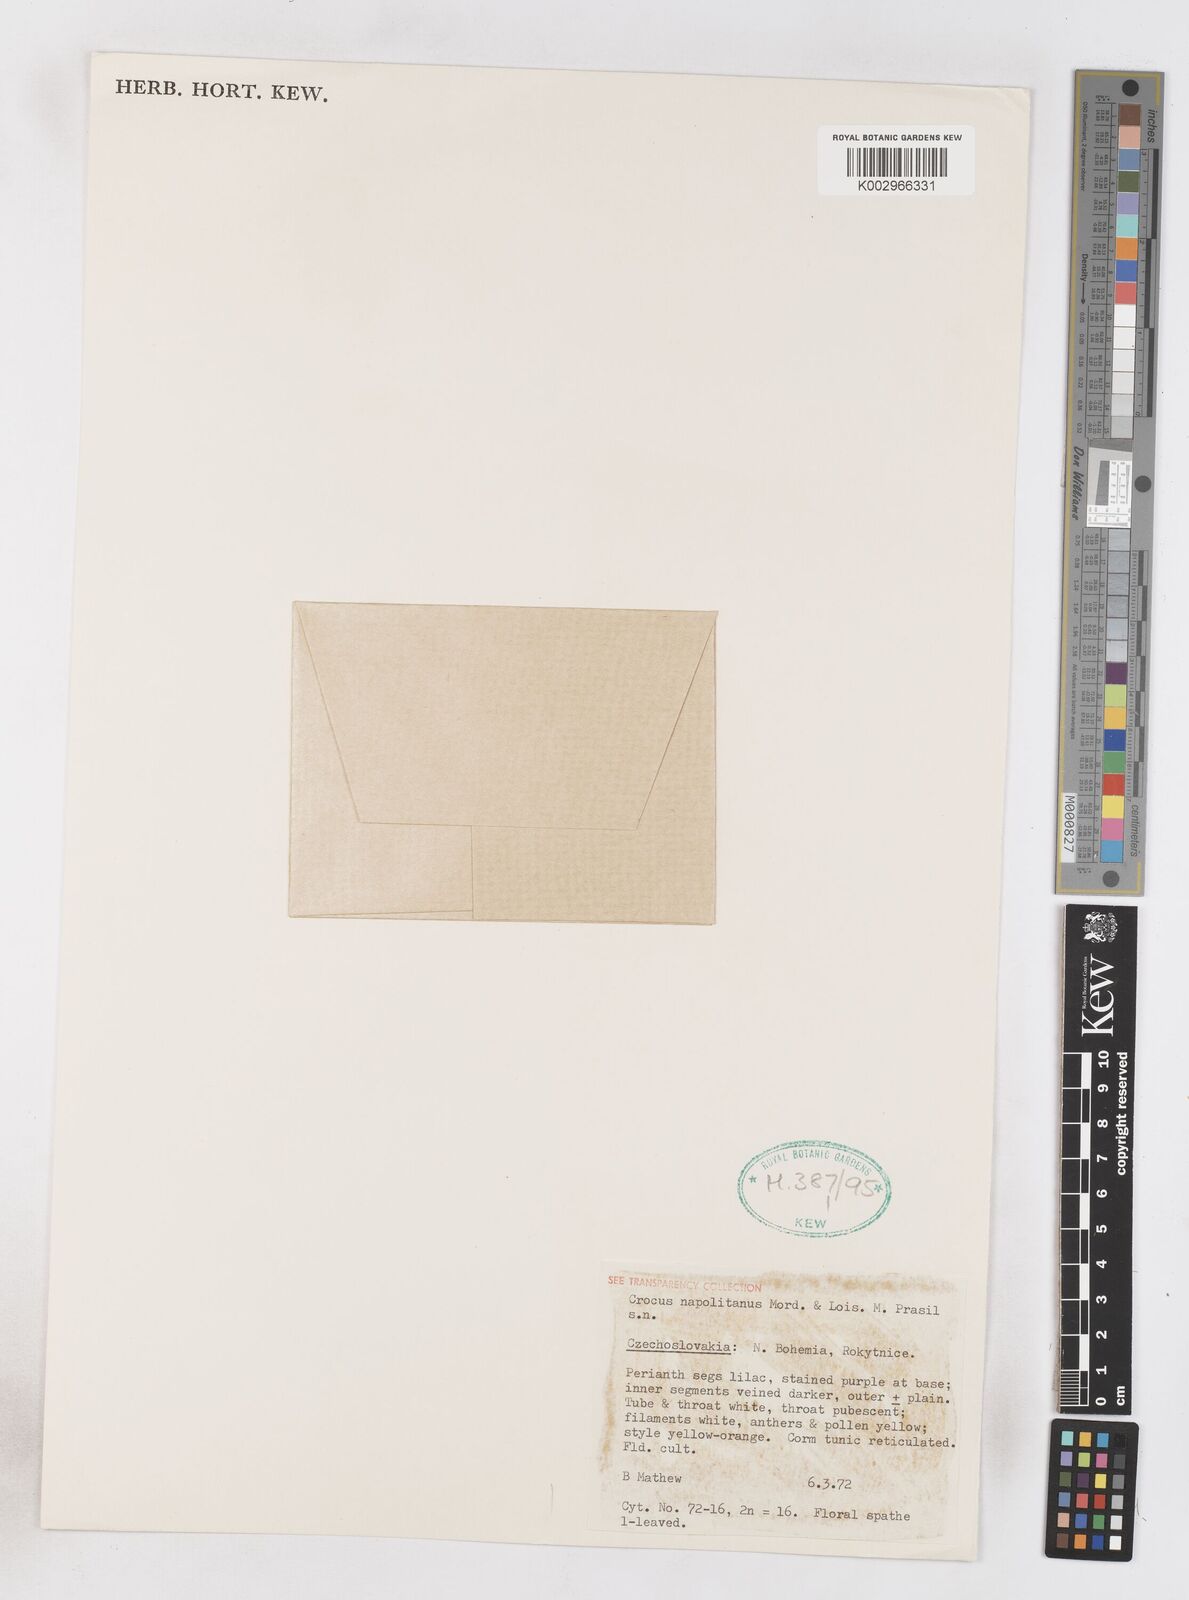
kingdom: Plantae
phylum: Tracheophyta
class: Liliopsida
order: Asparagales
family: Iridaceae
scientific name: Iridaceae
